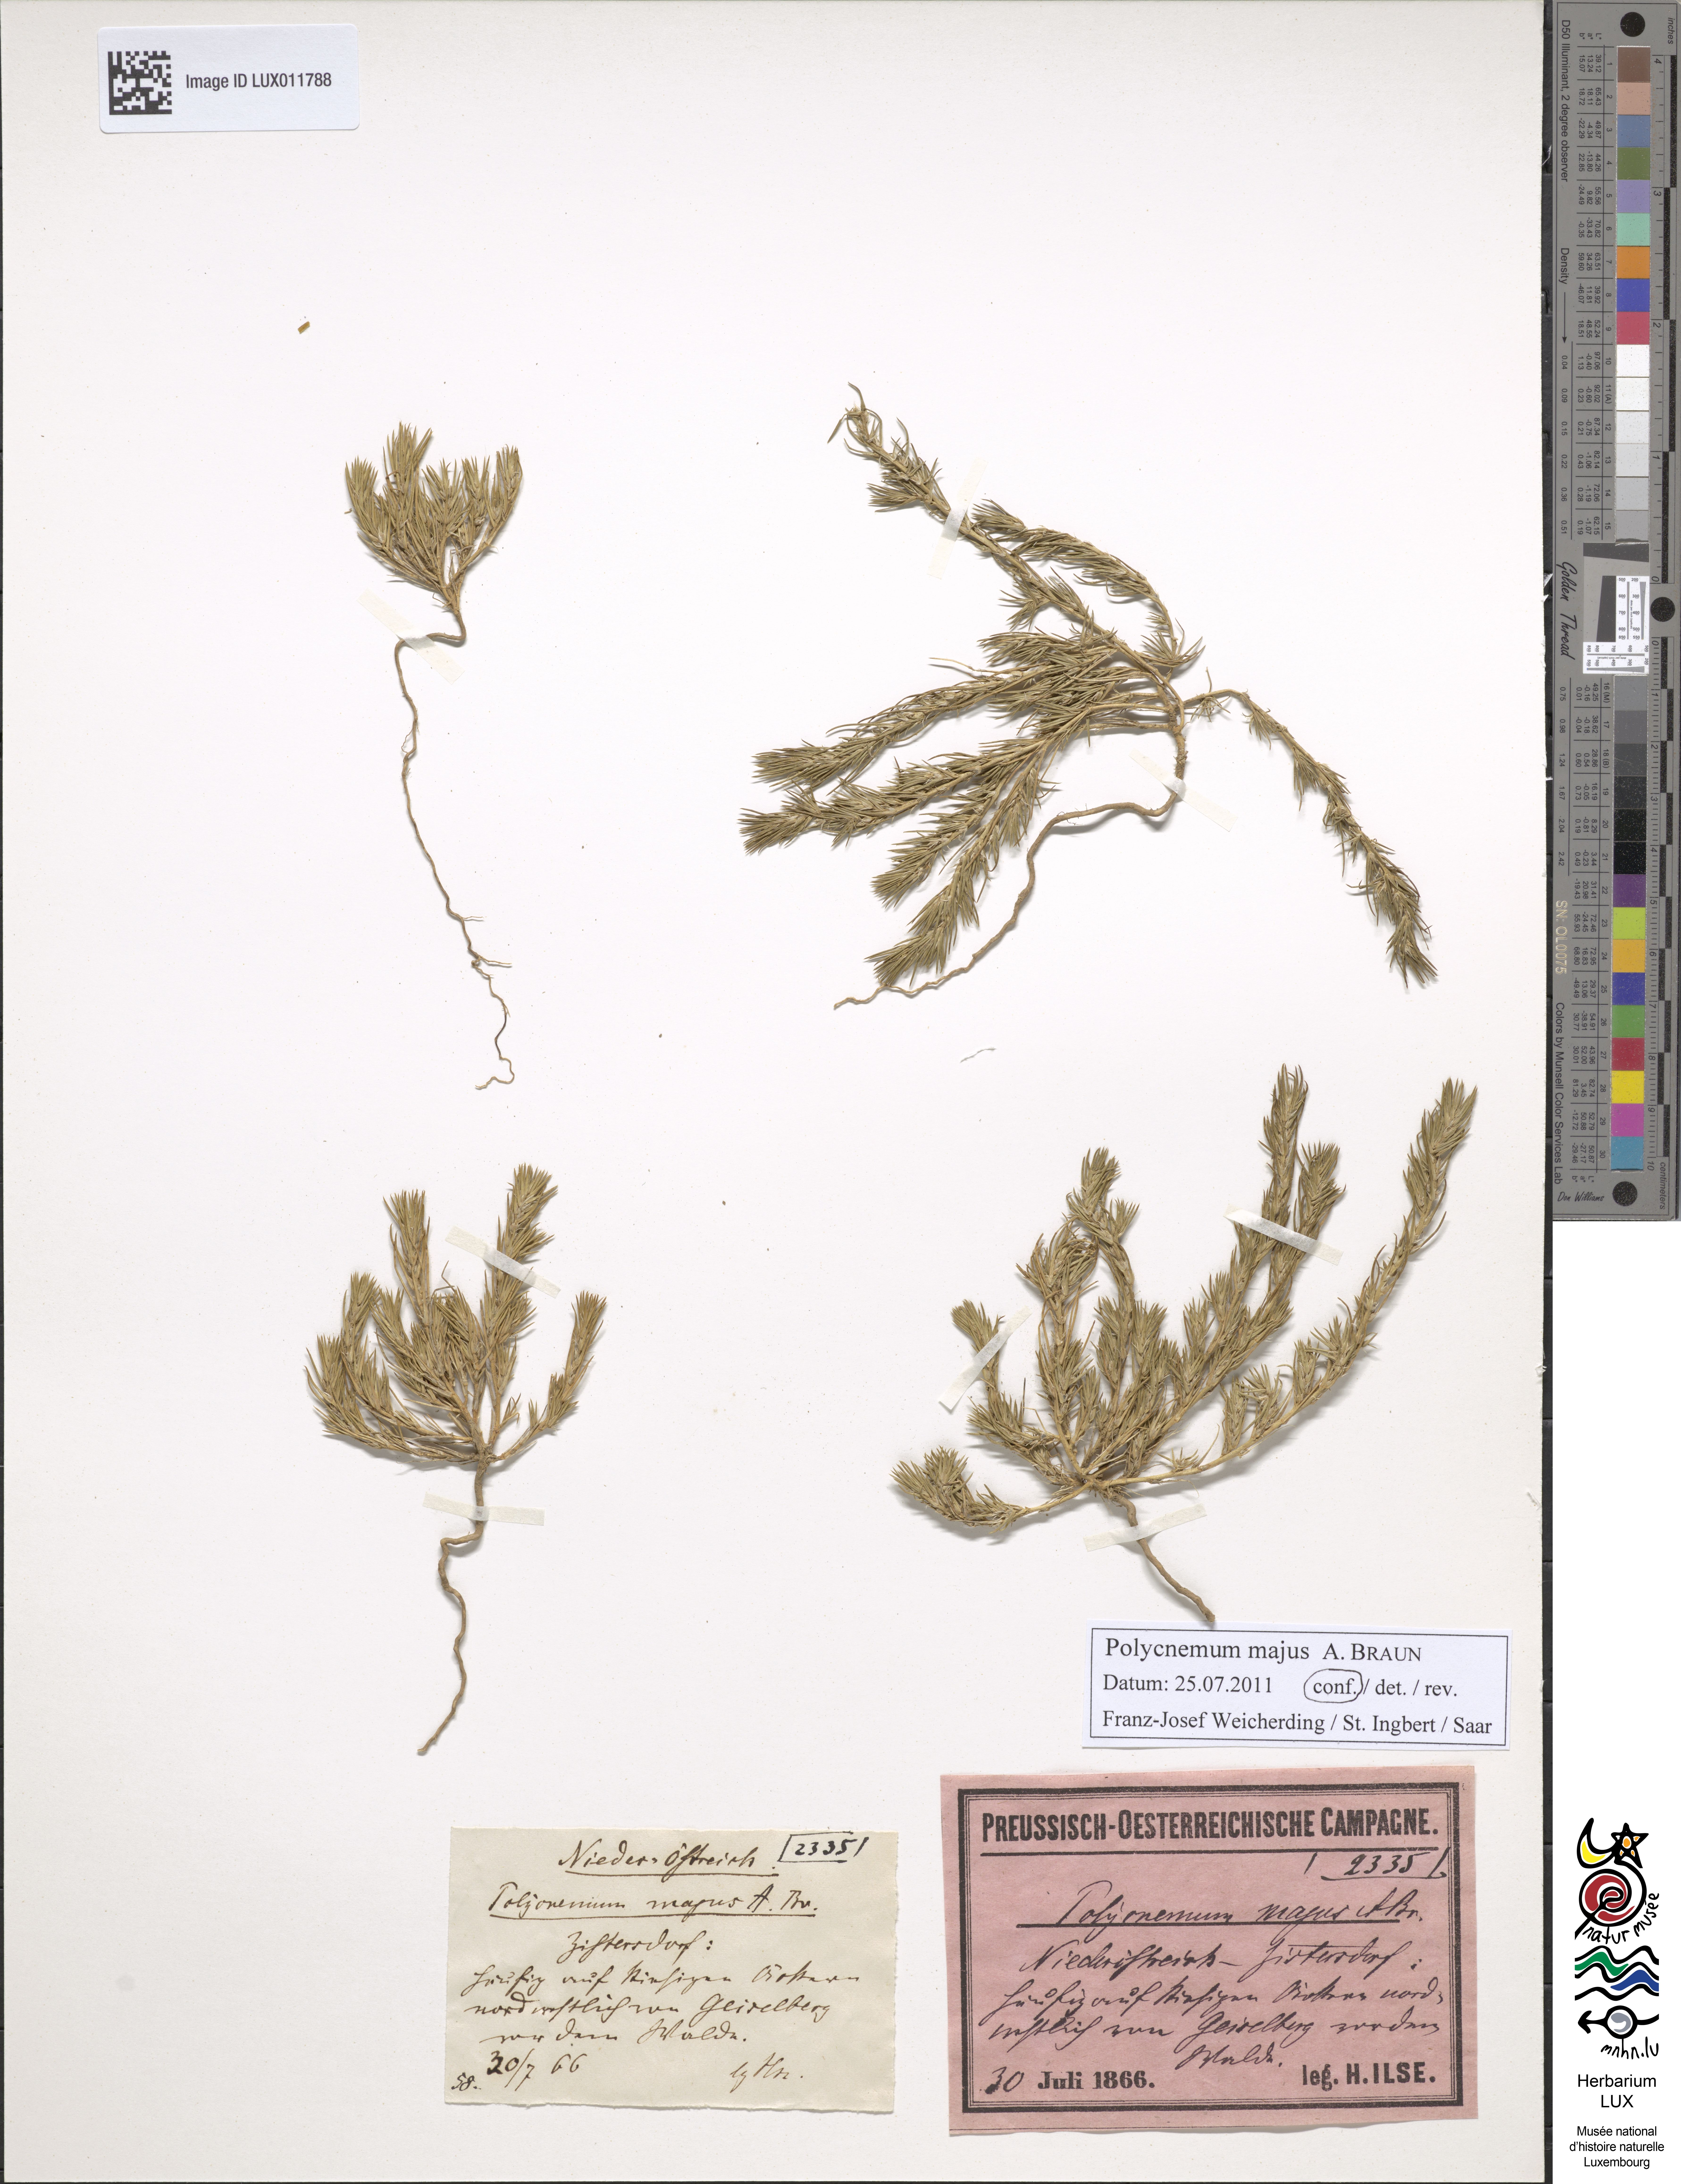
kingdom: Plantae
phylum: Tracheophyta
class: Magnoliopsida
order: Caryophyllales
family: Amaranthaceae
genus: Polycnemum
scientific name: Polycnemum majus
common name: Giant needleleaf
